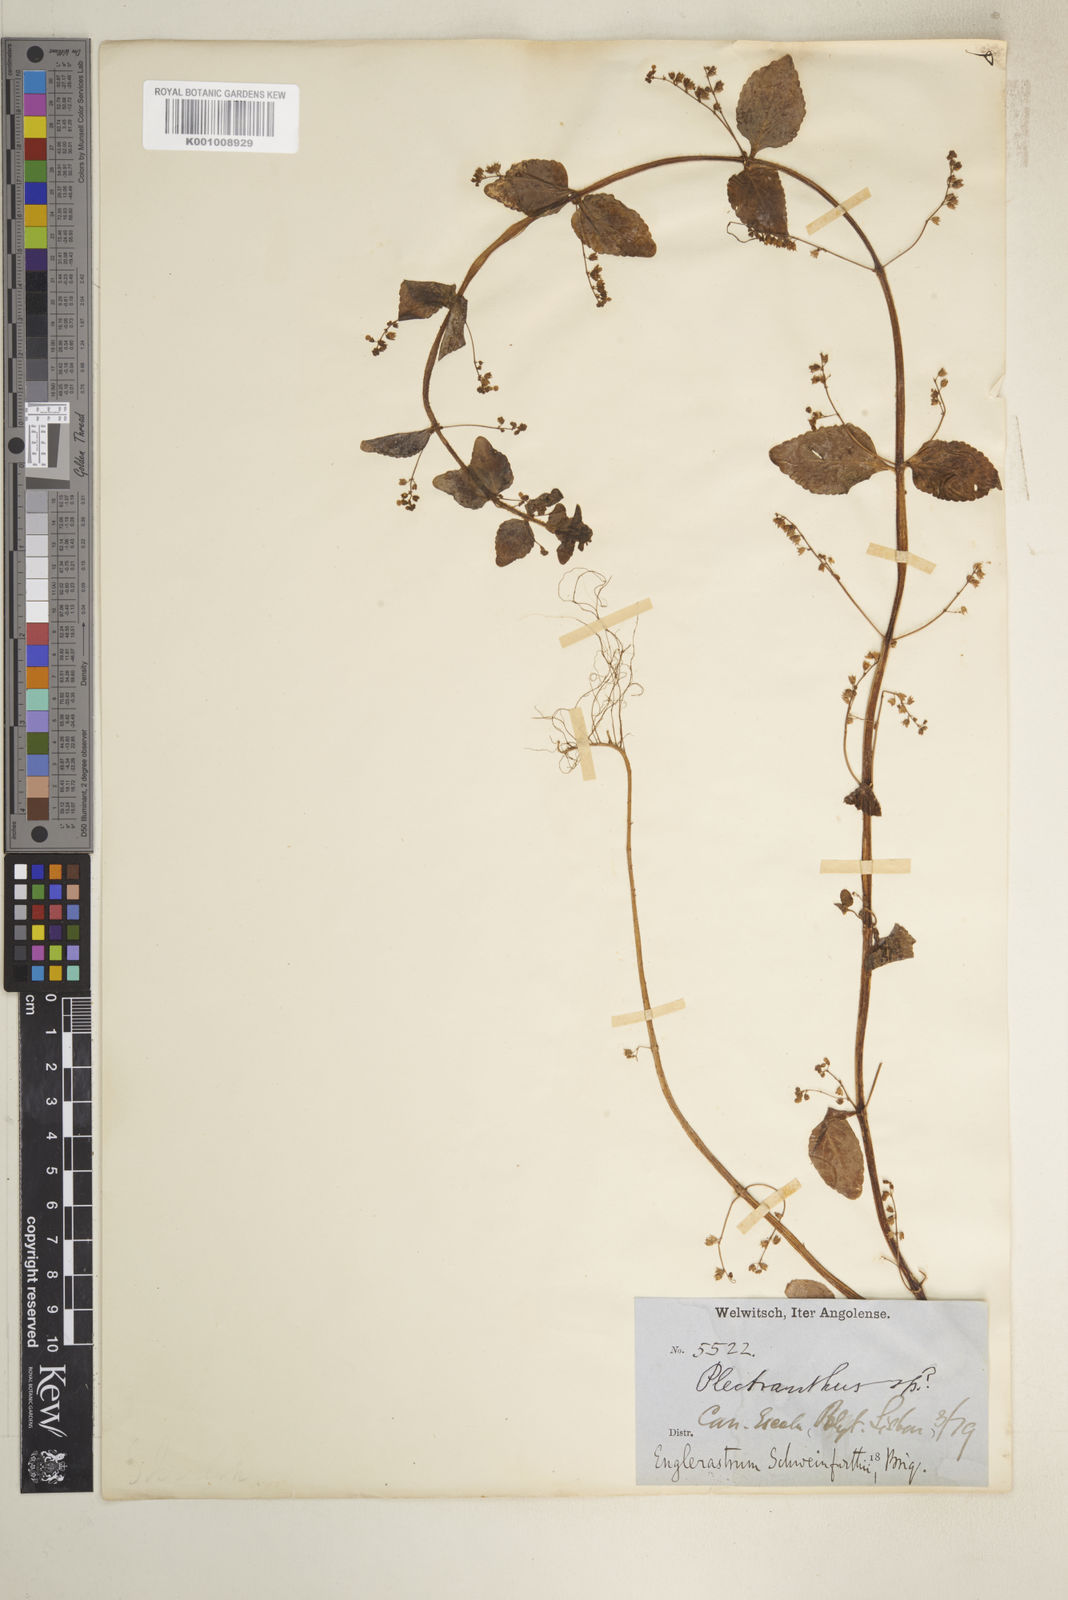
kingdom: Plantae
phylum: Tracheophyta
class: Magnoliopsida
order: Lamiales
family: Lamiaceae
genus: Coleus
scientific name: Coleus rhodesianum
